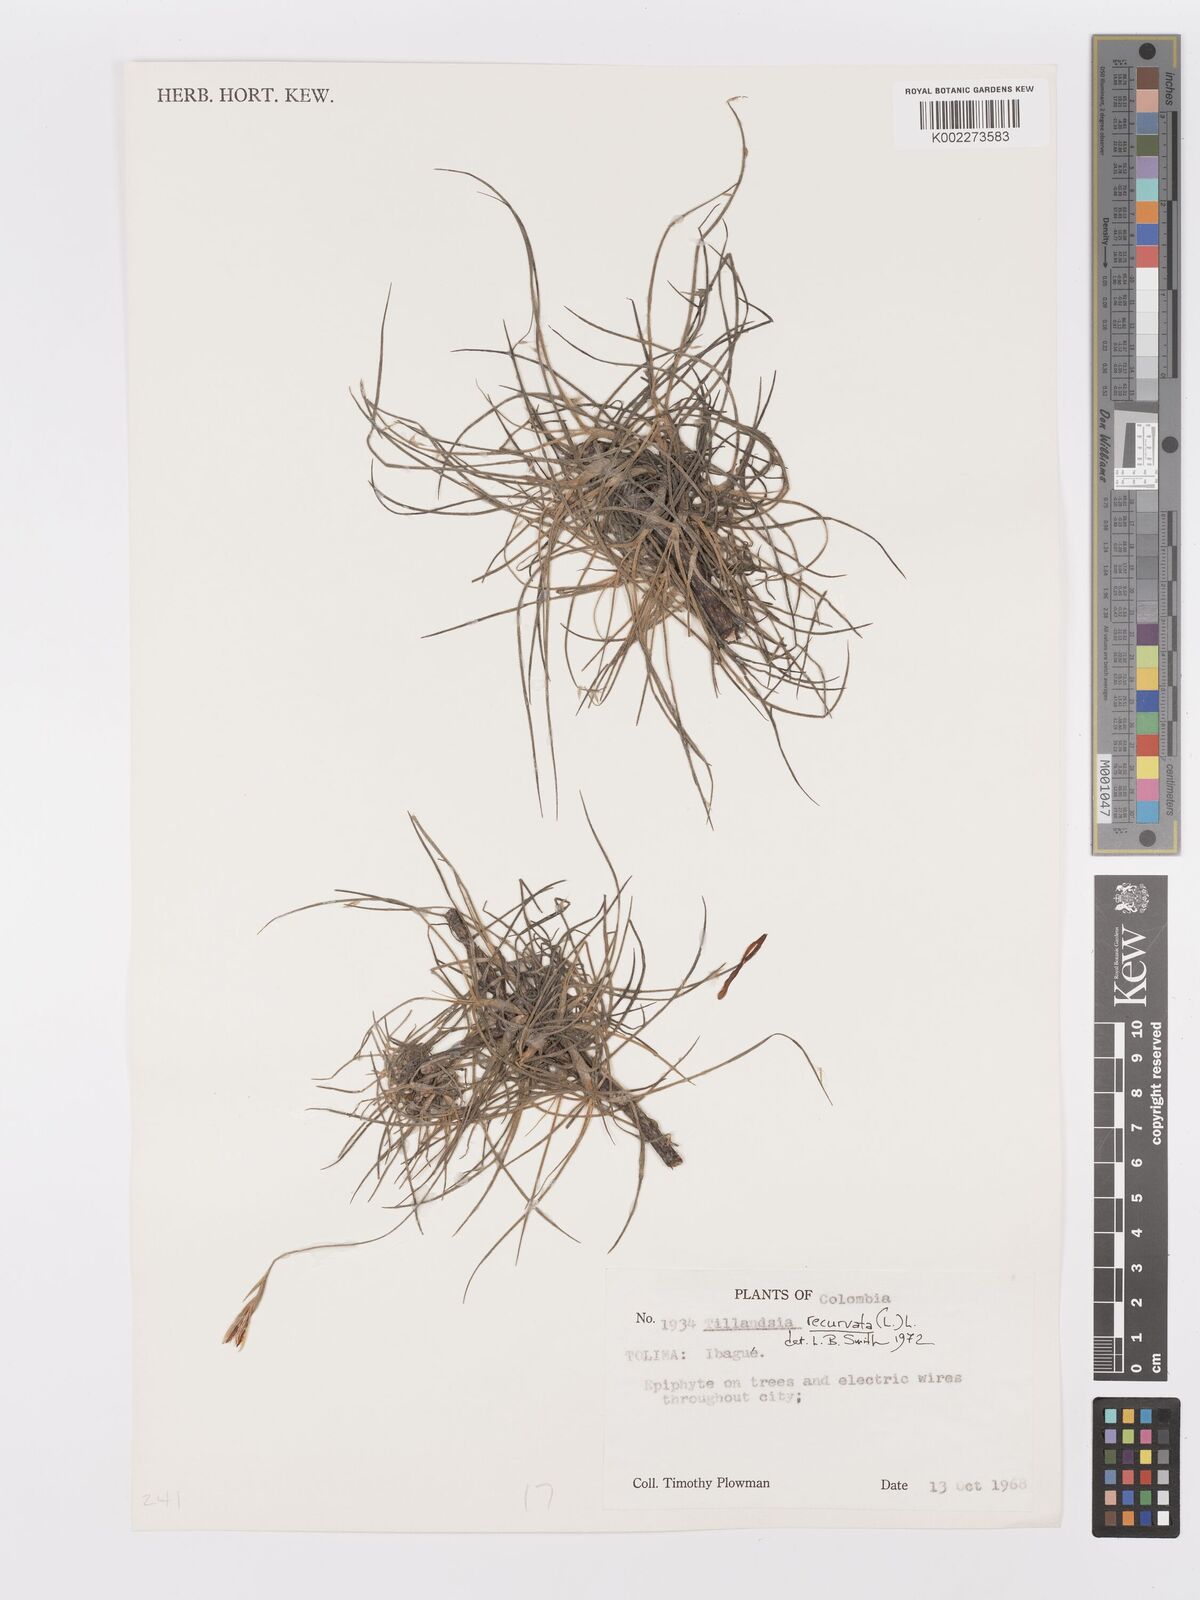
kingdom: Plantae
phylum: Tracheophyta
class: Liliopsida
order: Poales
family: Bromeliaceae
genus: Tillandsia
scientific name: Tillandsia recurvata
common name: Small ballmoss
